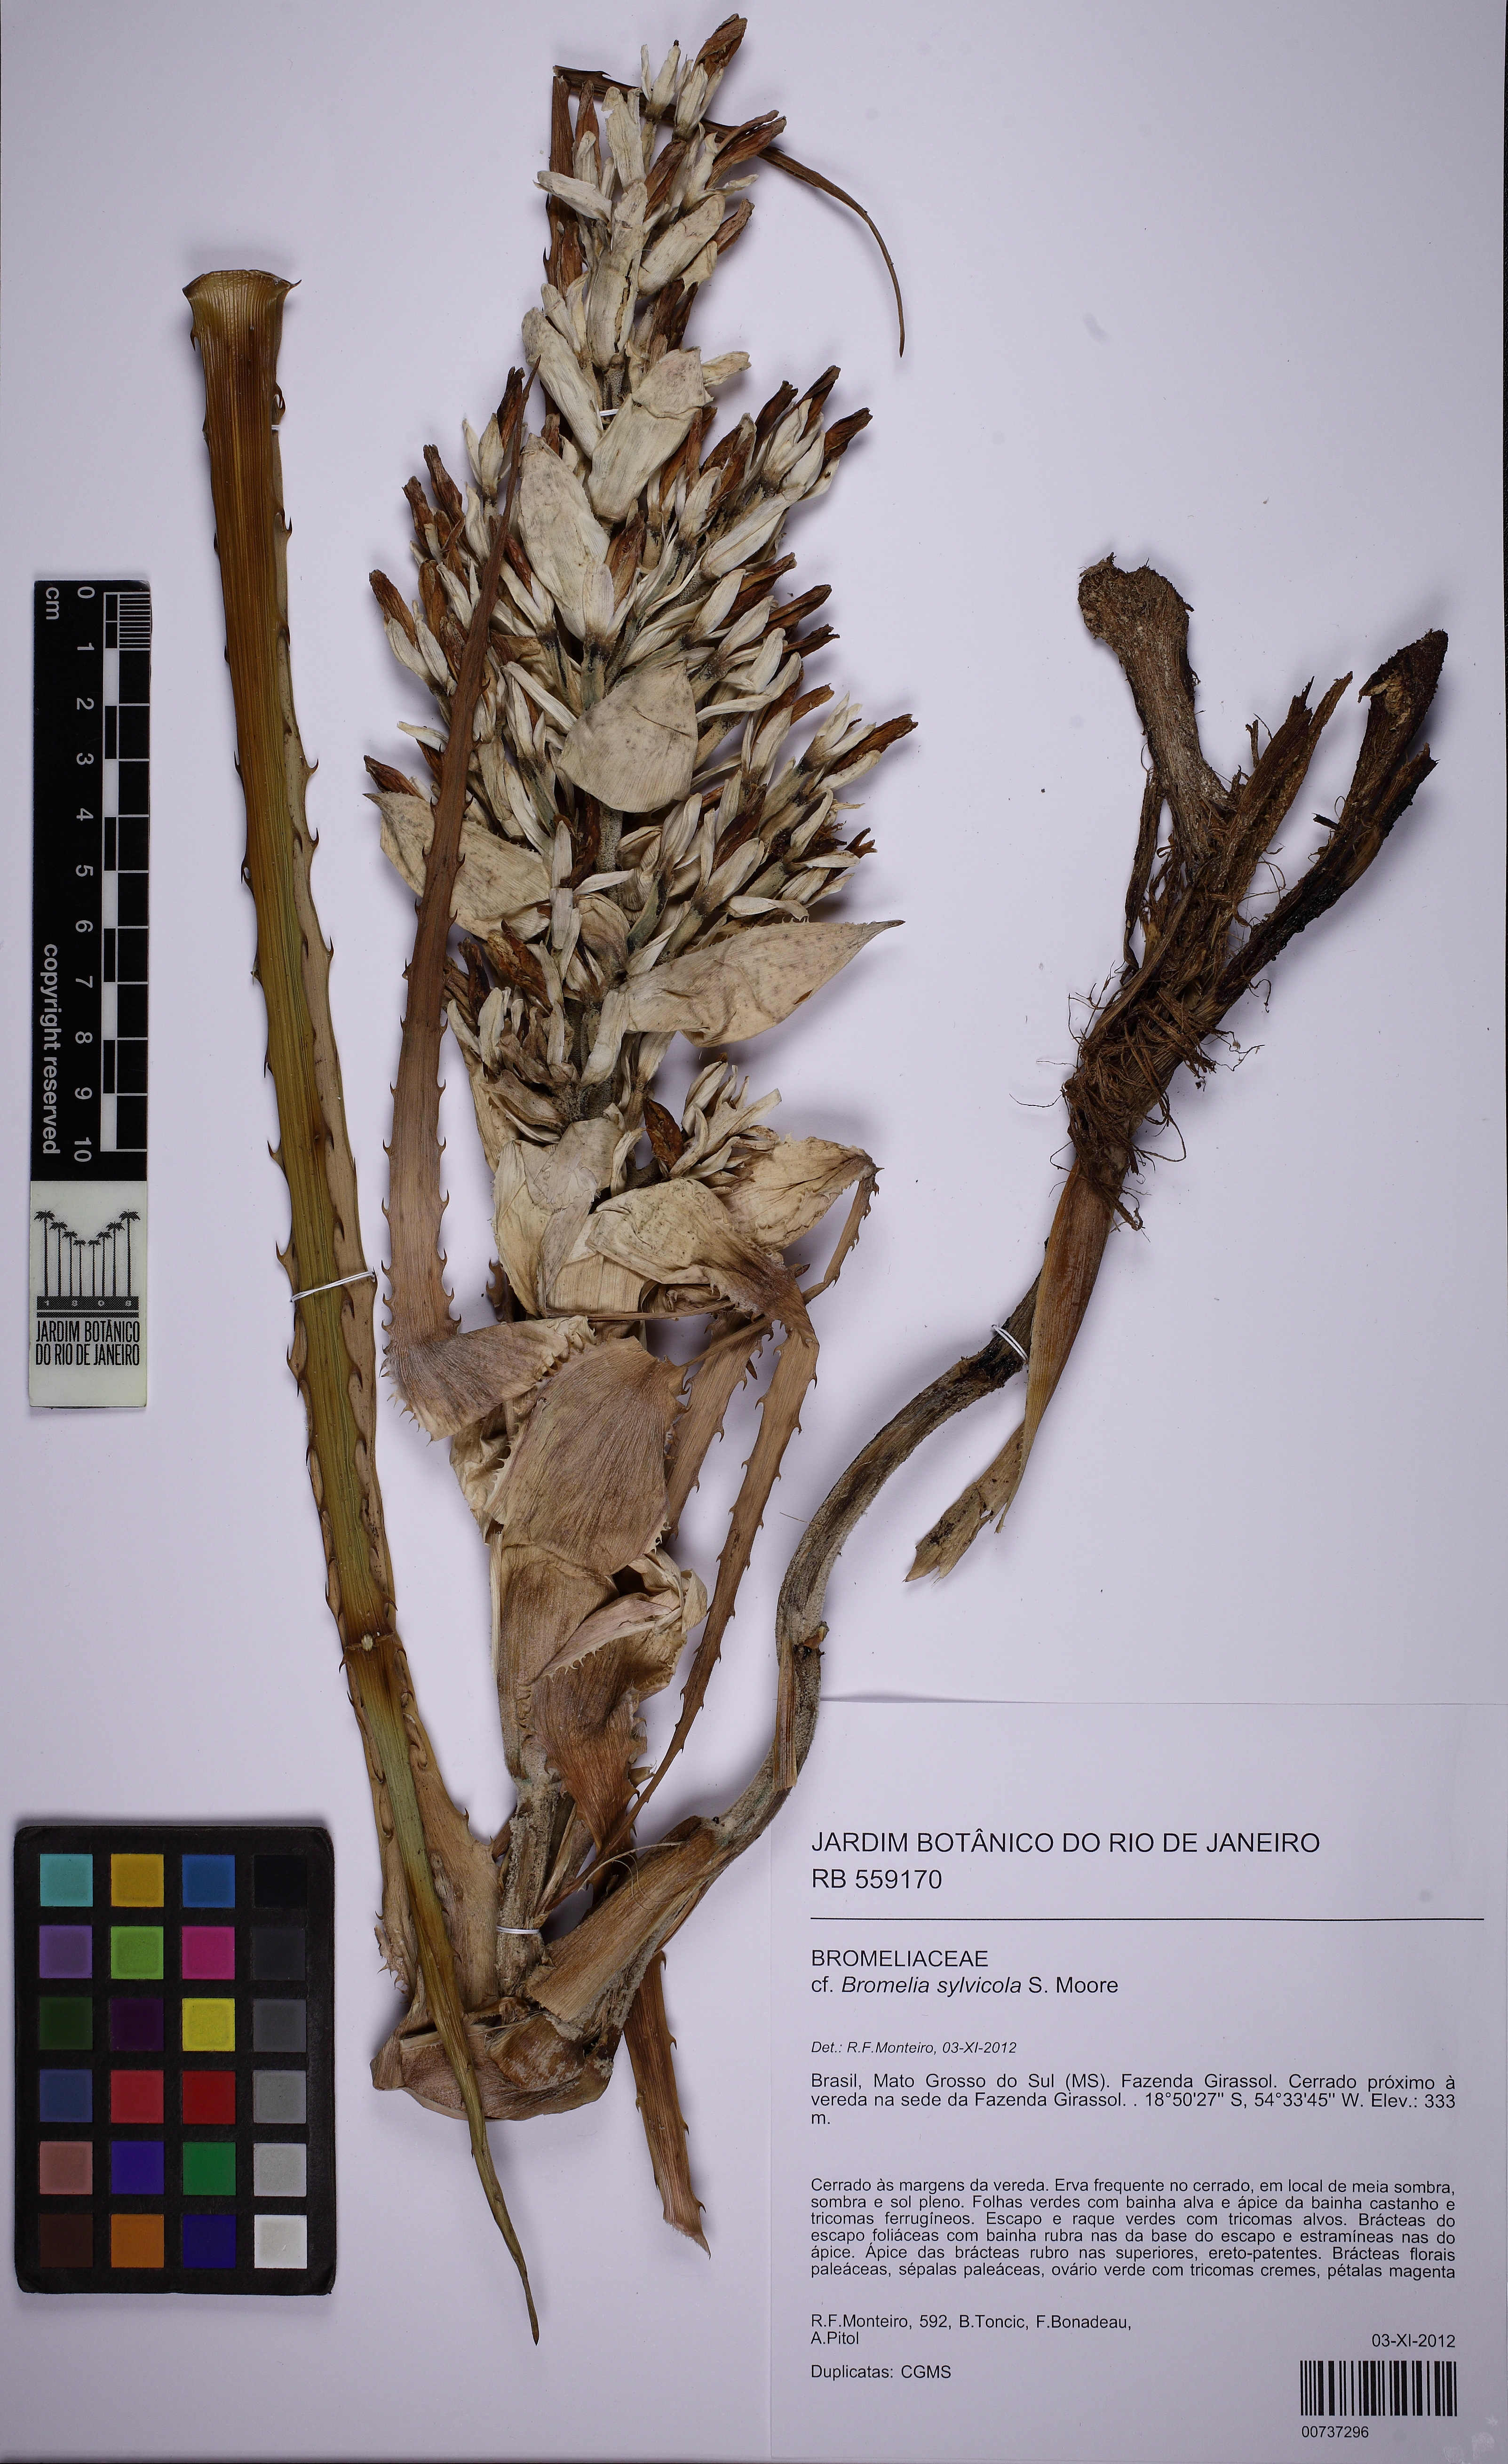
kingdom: Plantae
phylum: Tracheophyta
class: Liliopsida
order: Poales
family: Bromeliaceae
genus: Bromelia
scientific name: Bromelia sylvicola
